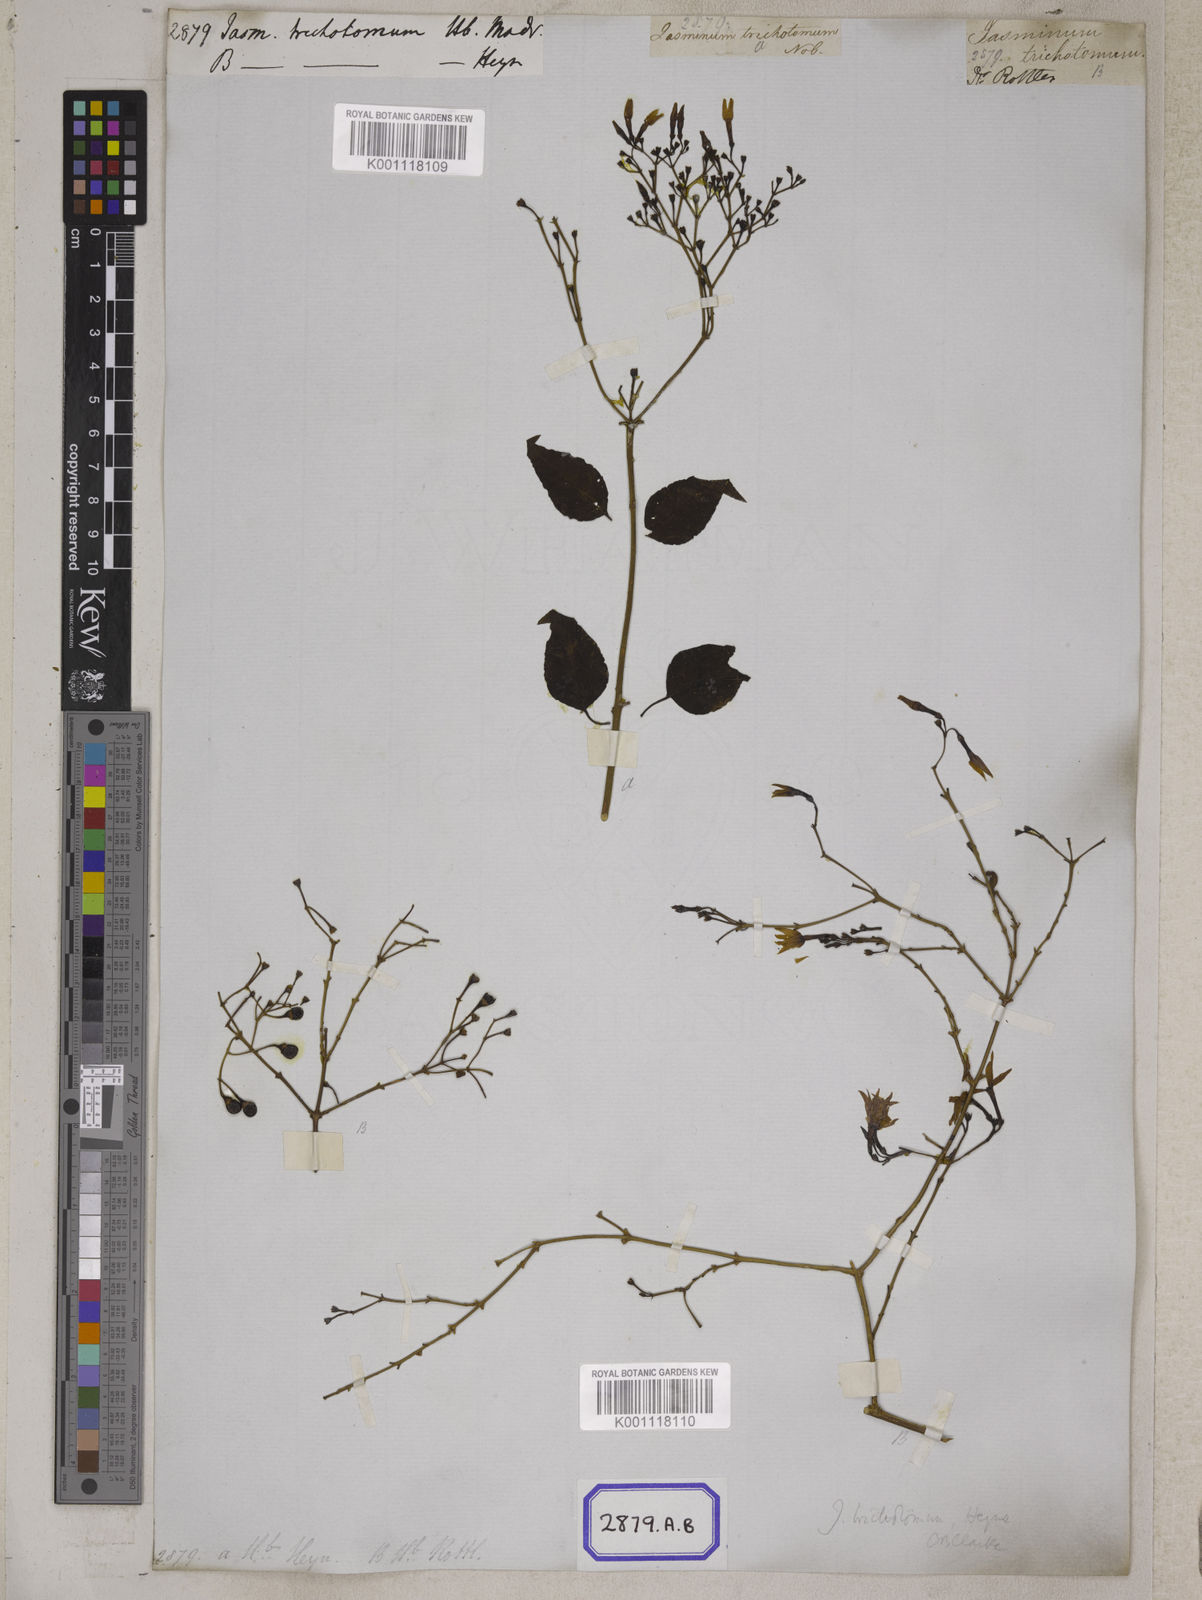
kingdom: Plantae
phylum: Tracheophyta
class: Magnoliopsida
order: Lamiales
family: Oleaceae
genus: Jasminum
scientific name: Jasminum trichotomum
